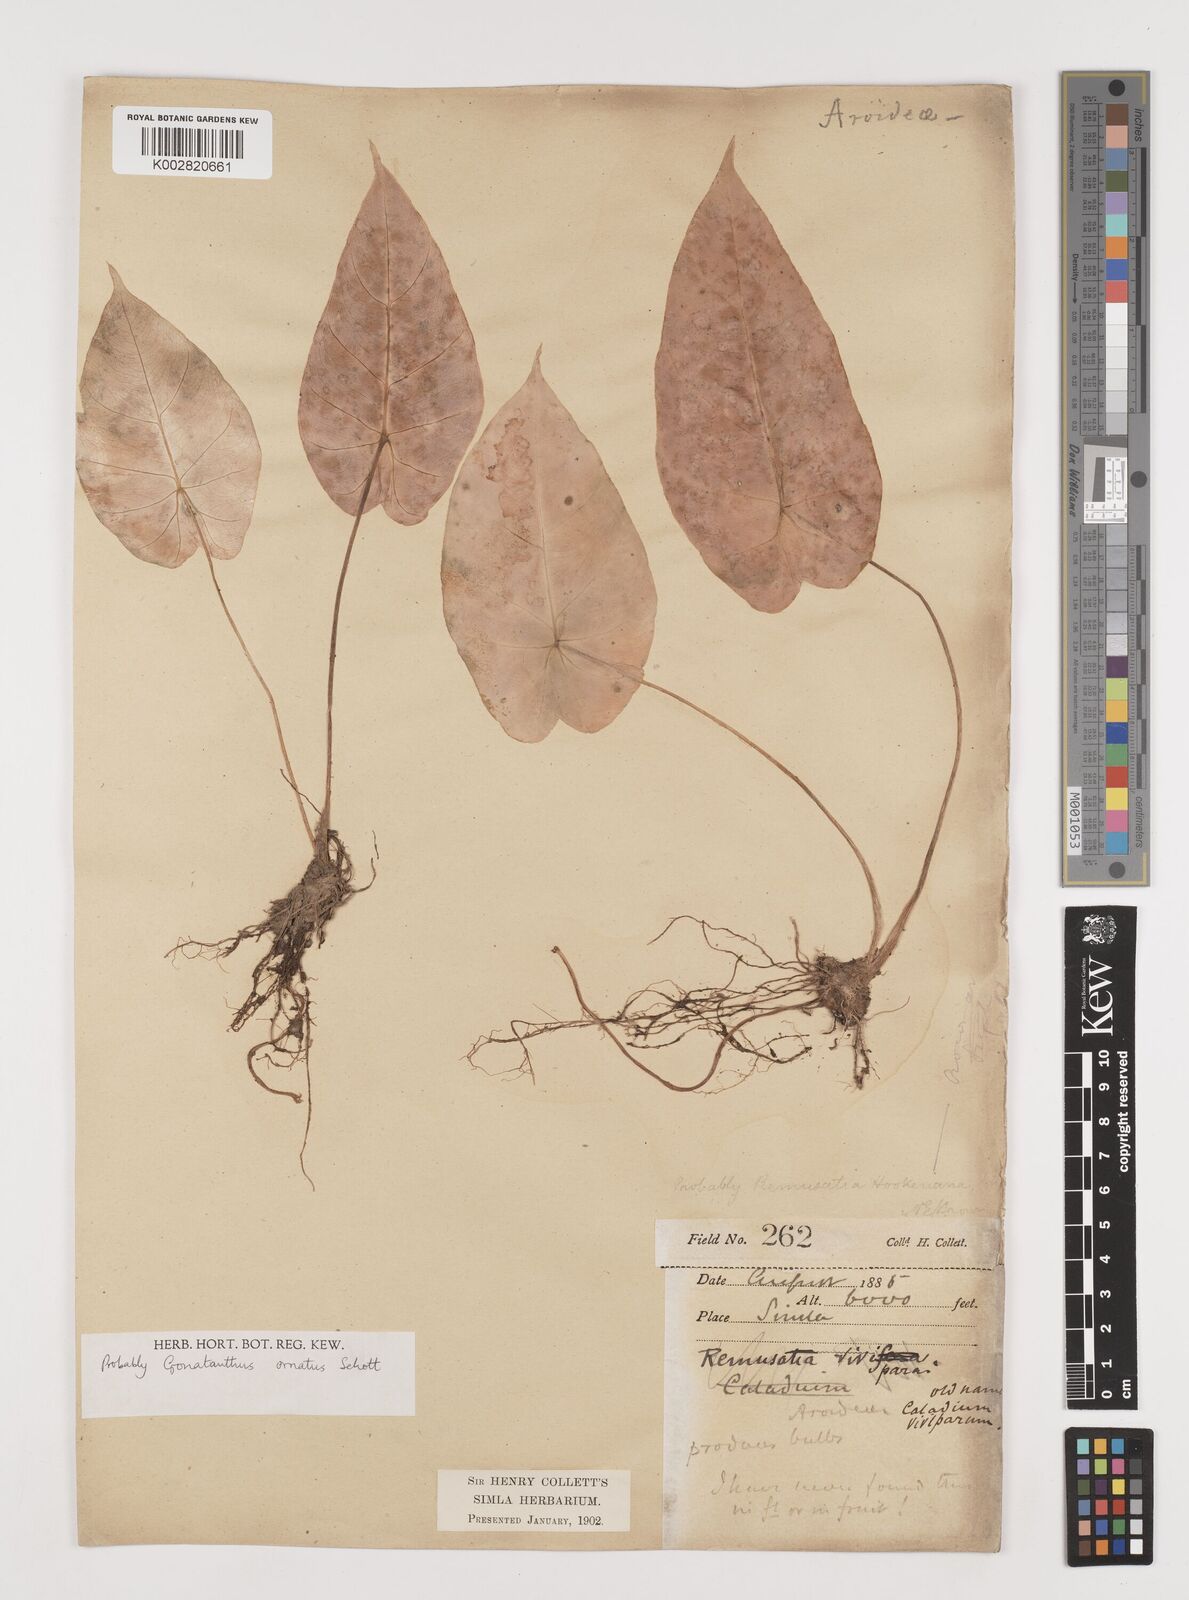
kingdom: Plantae
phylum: Tracheophyta
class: Liliopsida
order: Alismatales
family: Araceae
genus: Remusatia
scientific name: Remusatia hookeriana
